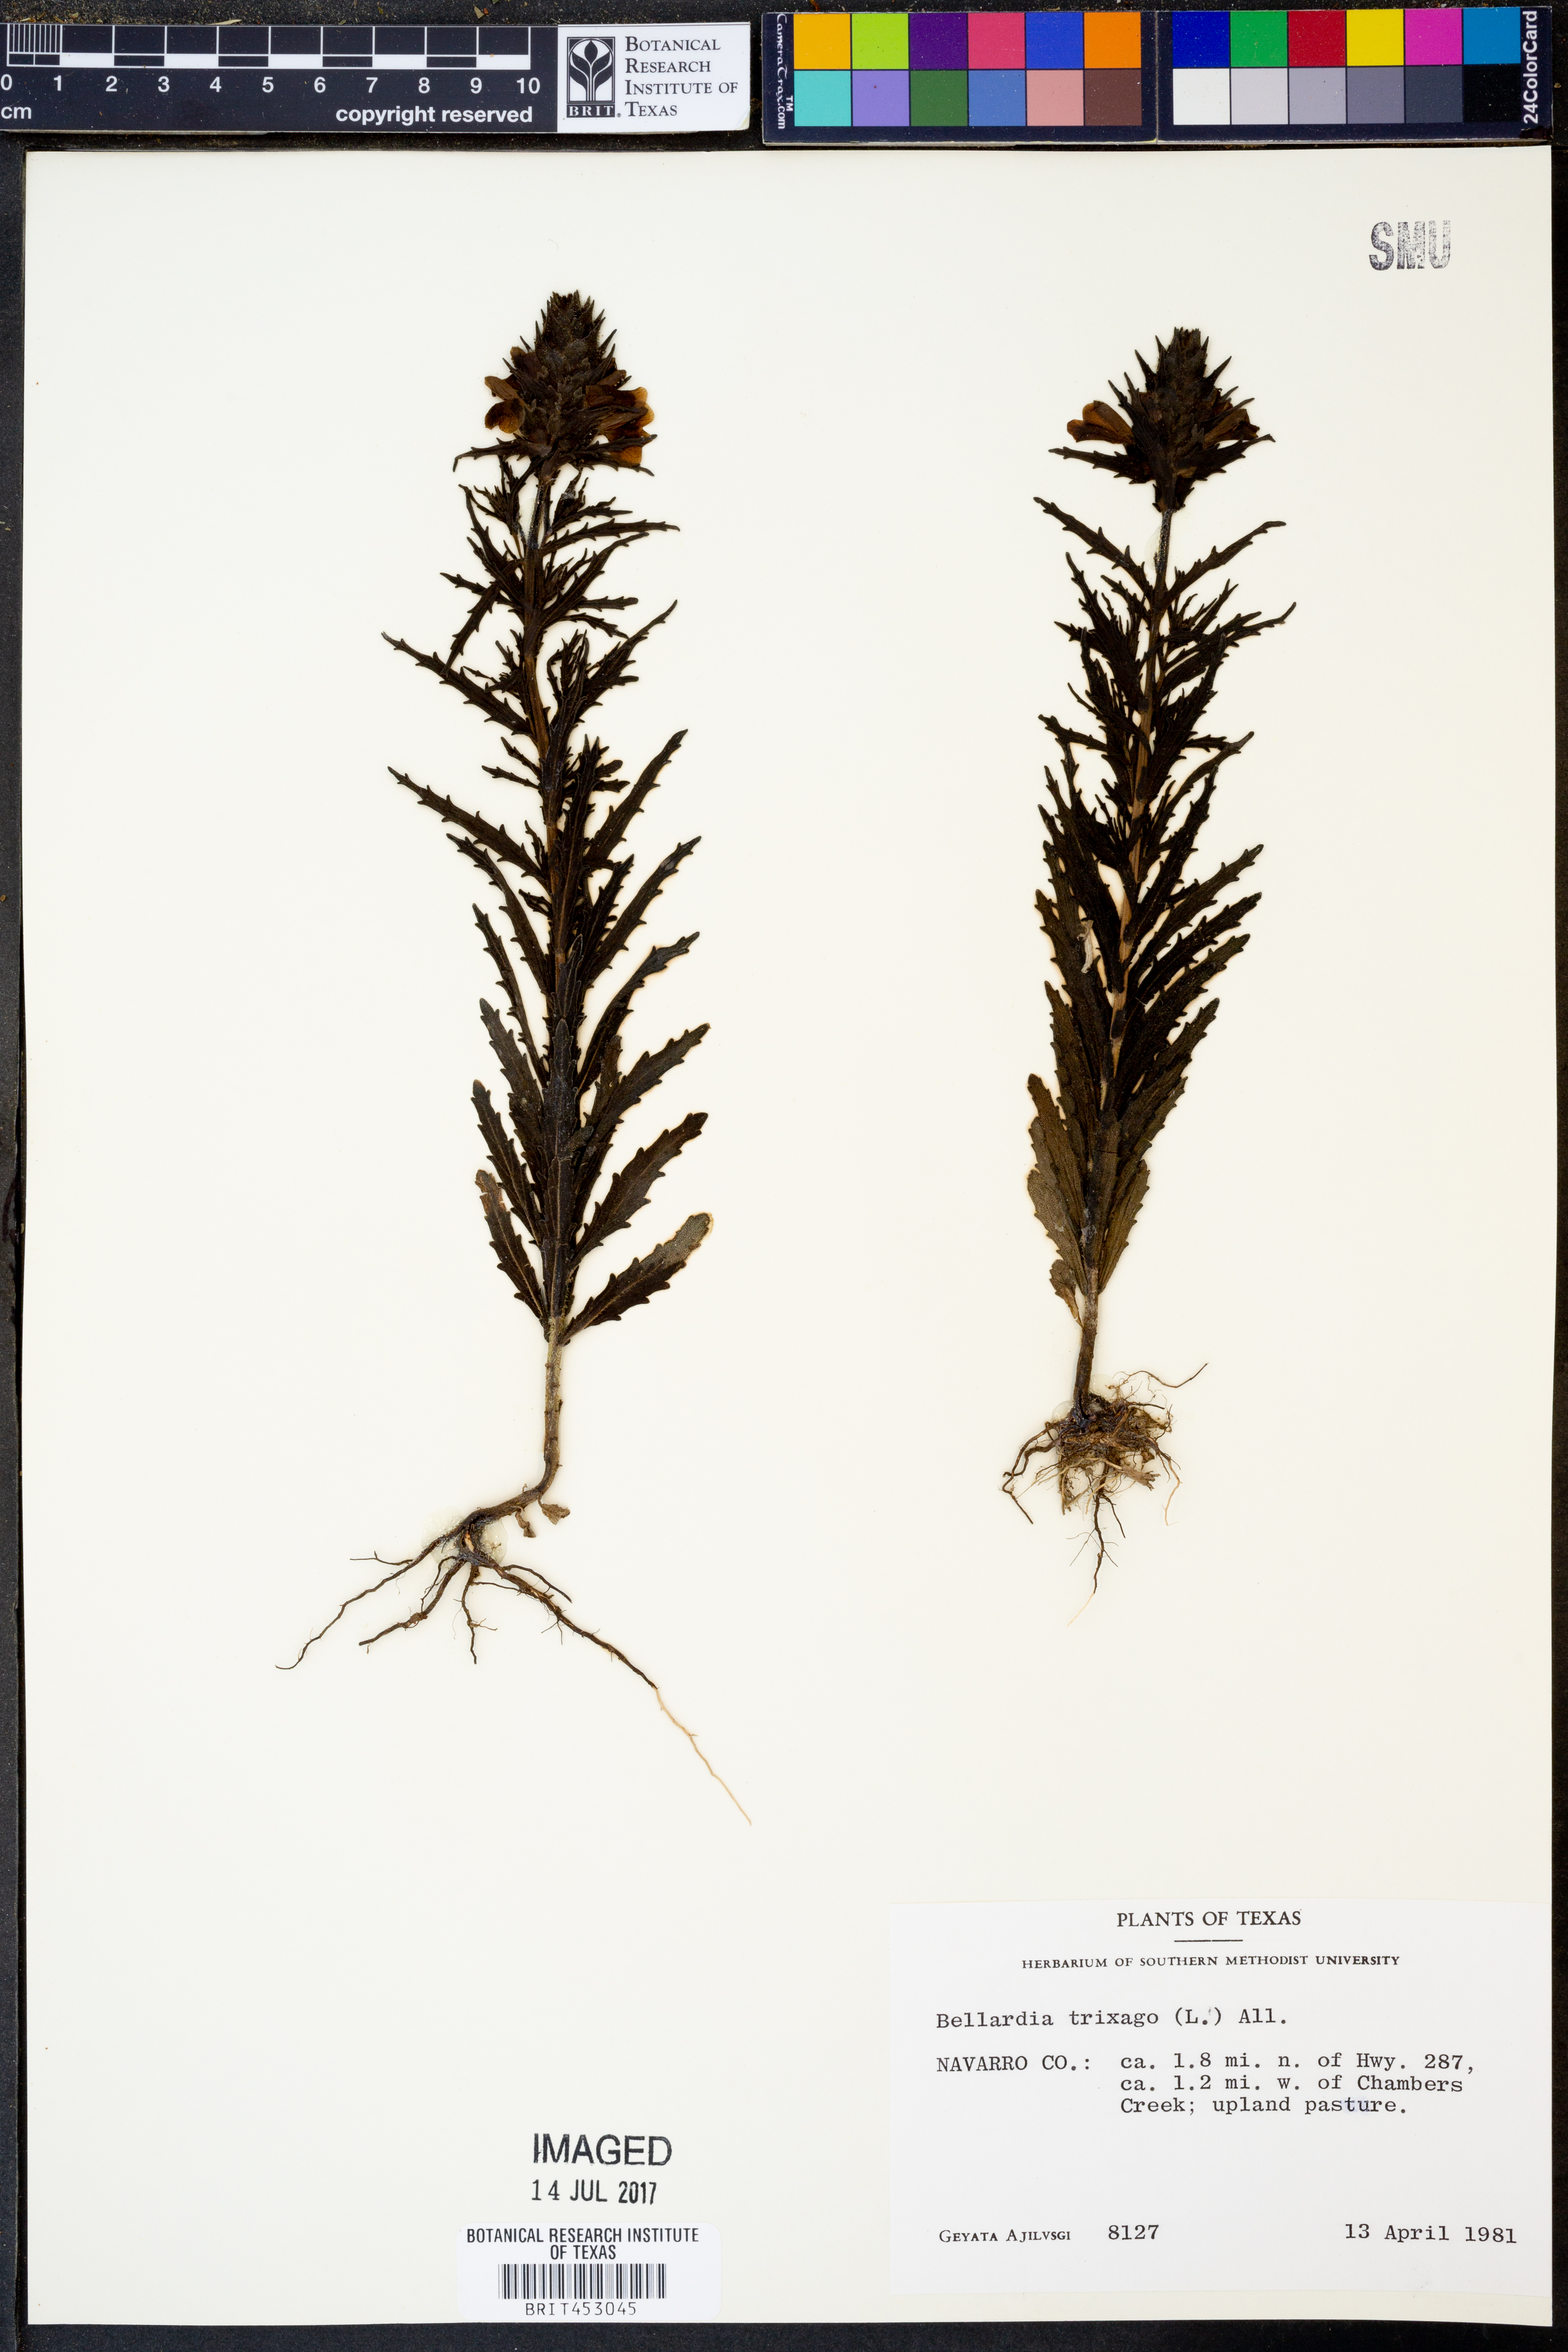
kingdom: Plantae
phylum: Tracheophyta
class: Magnoliopsida
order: Lamiales
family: Orobanchaceae
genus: Bellardia
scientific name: Bellardia trixago
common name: Mediterranean lineseed
